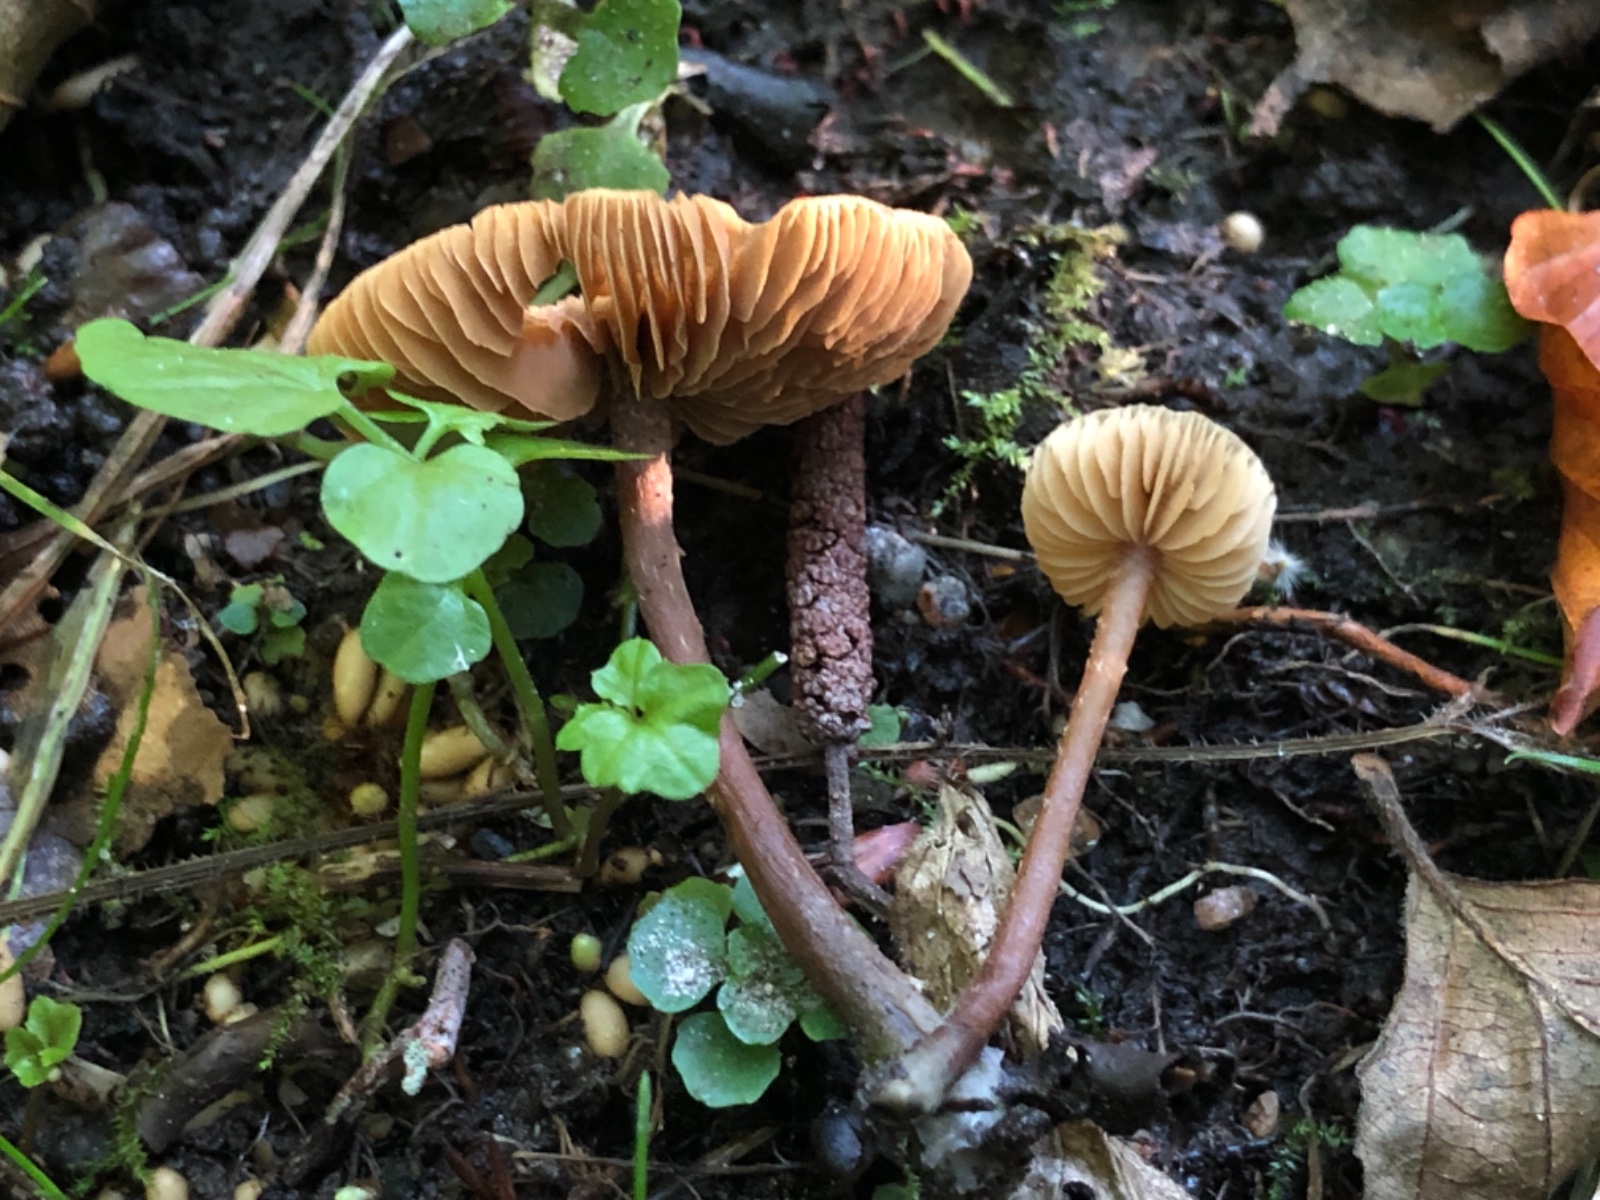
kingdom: Fungi
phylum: Basidiomycota
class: Agaricomycetes
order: Agaricales
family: Hymenogastraceae
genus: Naucoria
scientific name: Naucoria escharioides
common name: lys elle-knaphat
